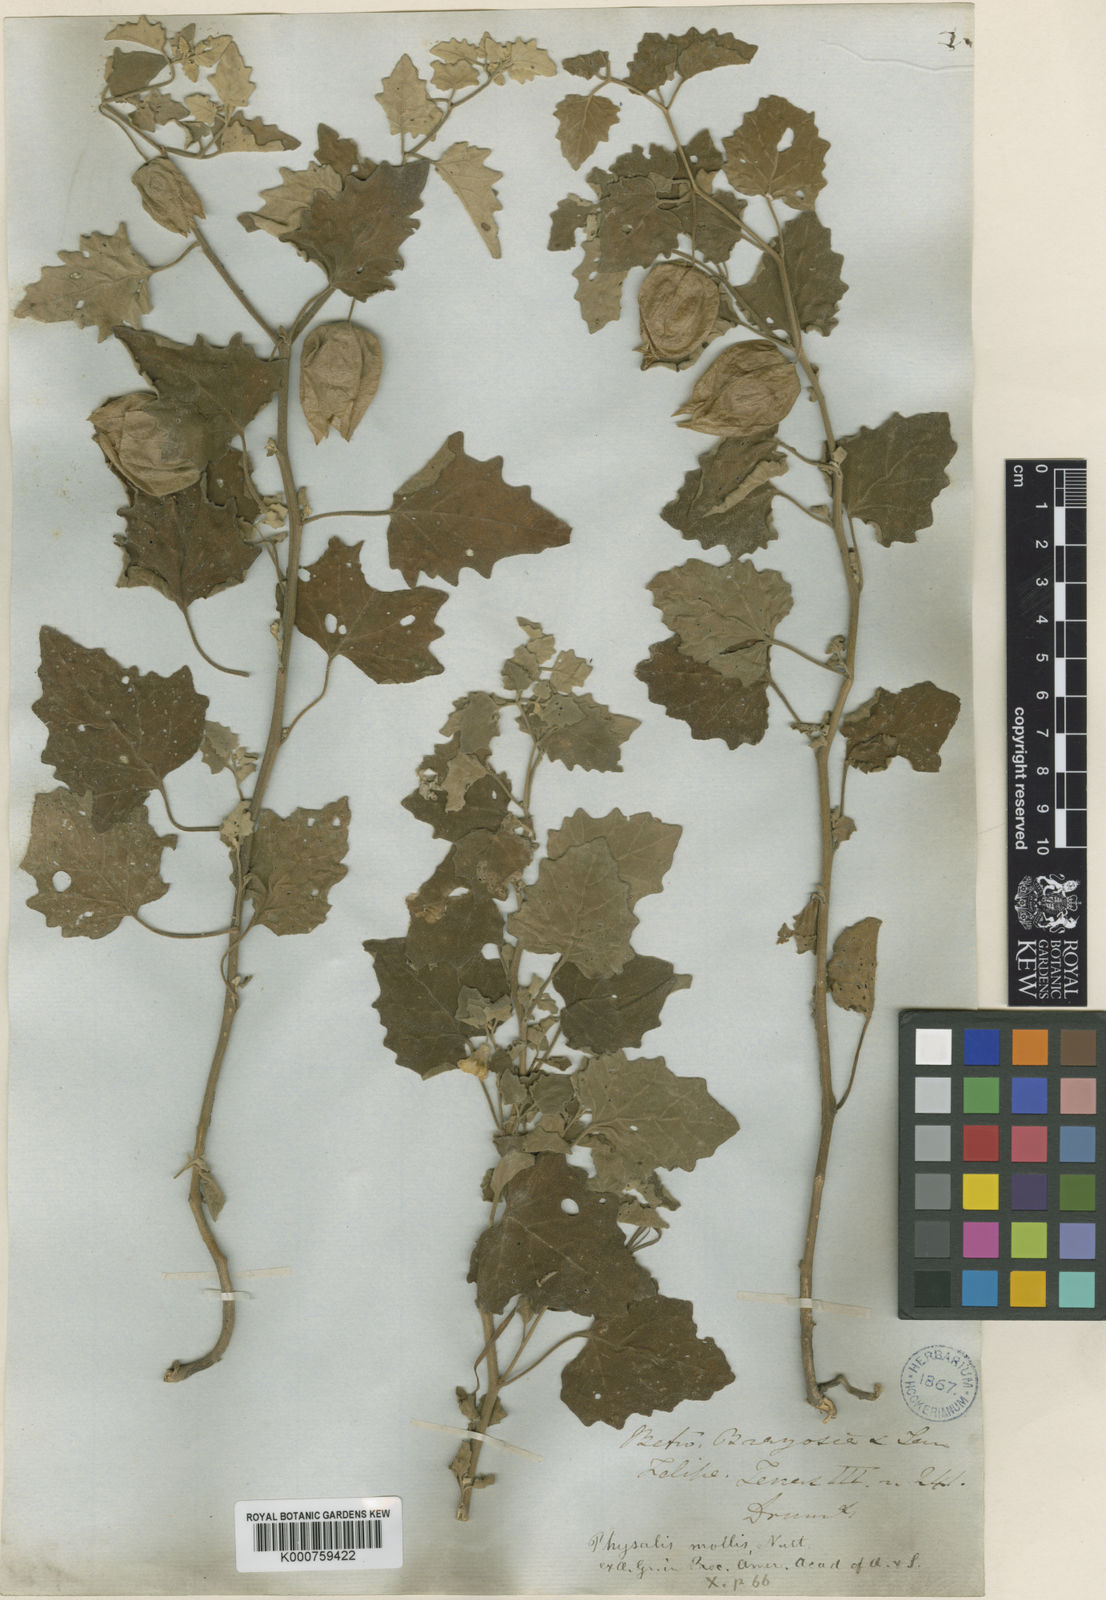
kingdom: Plantae
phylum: Tracheophyta
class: Magnoliopsida
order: Solanales
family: Solanaceae
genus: Physalis
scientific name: Physalis mollis
